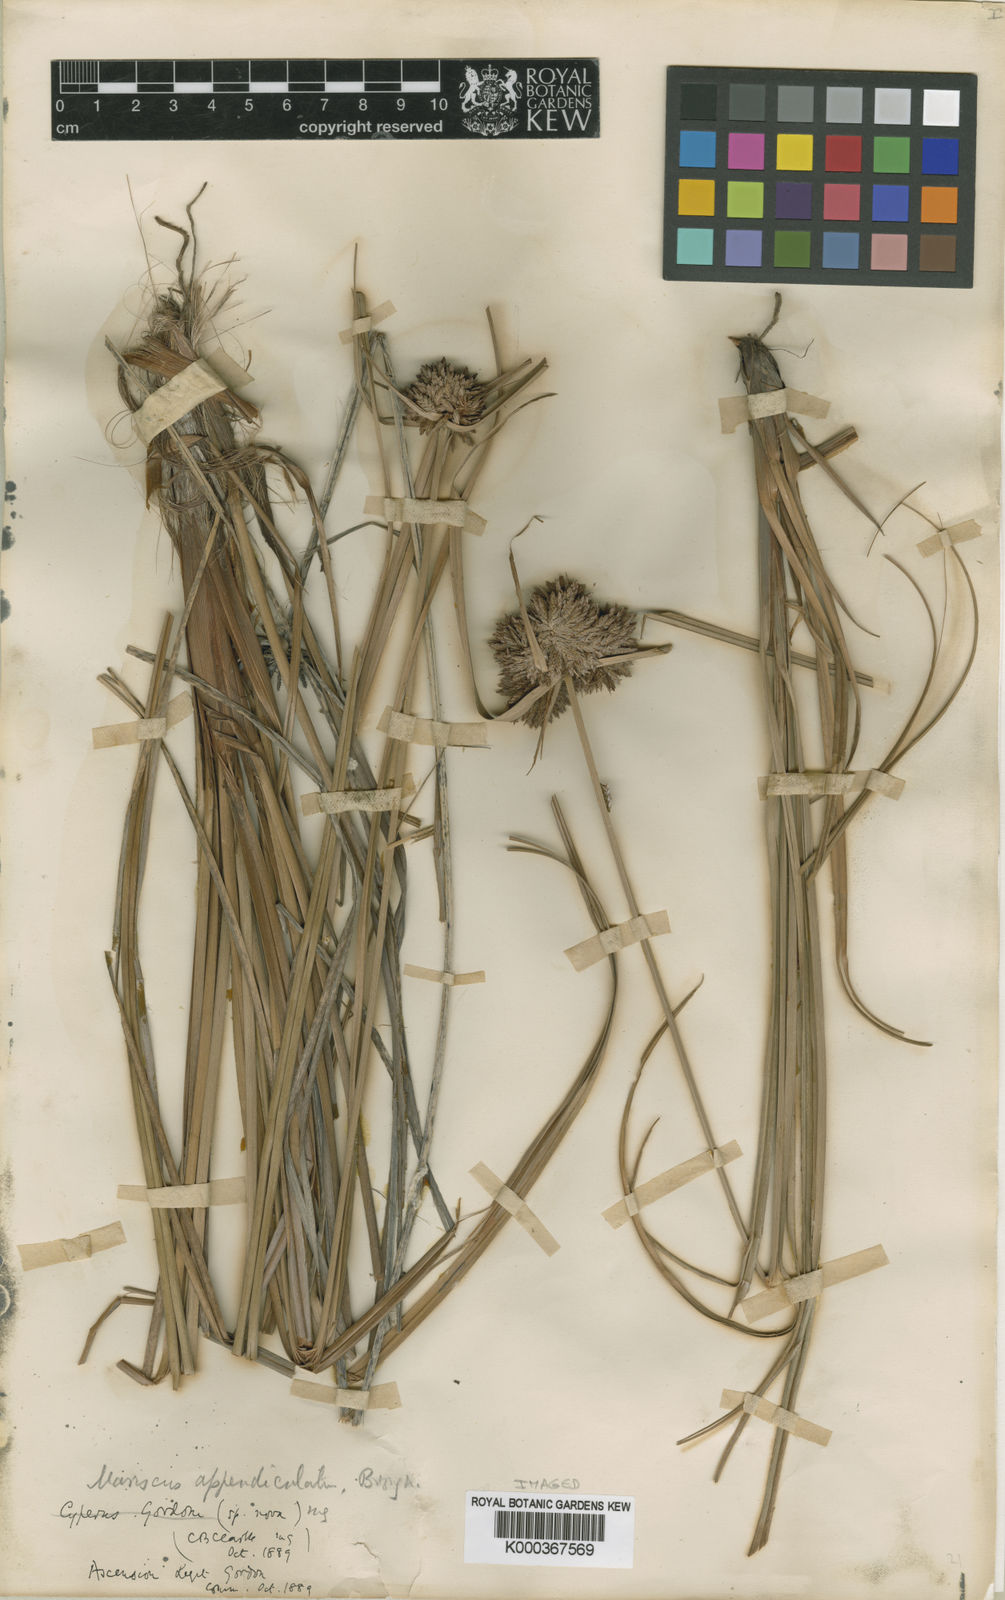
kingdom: Plantae
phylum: Tracheophyta
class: Liliopsida
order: Poales
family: Cyperaceae
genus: Cyperus
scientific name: Cyperus appendiculatus
